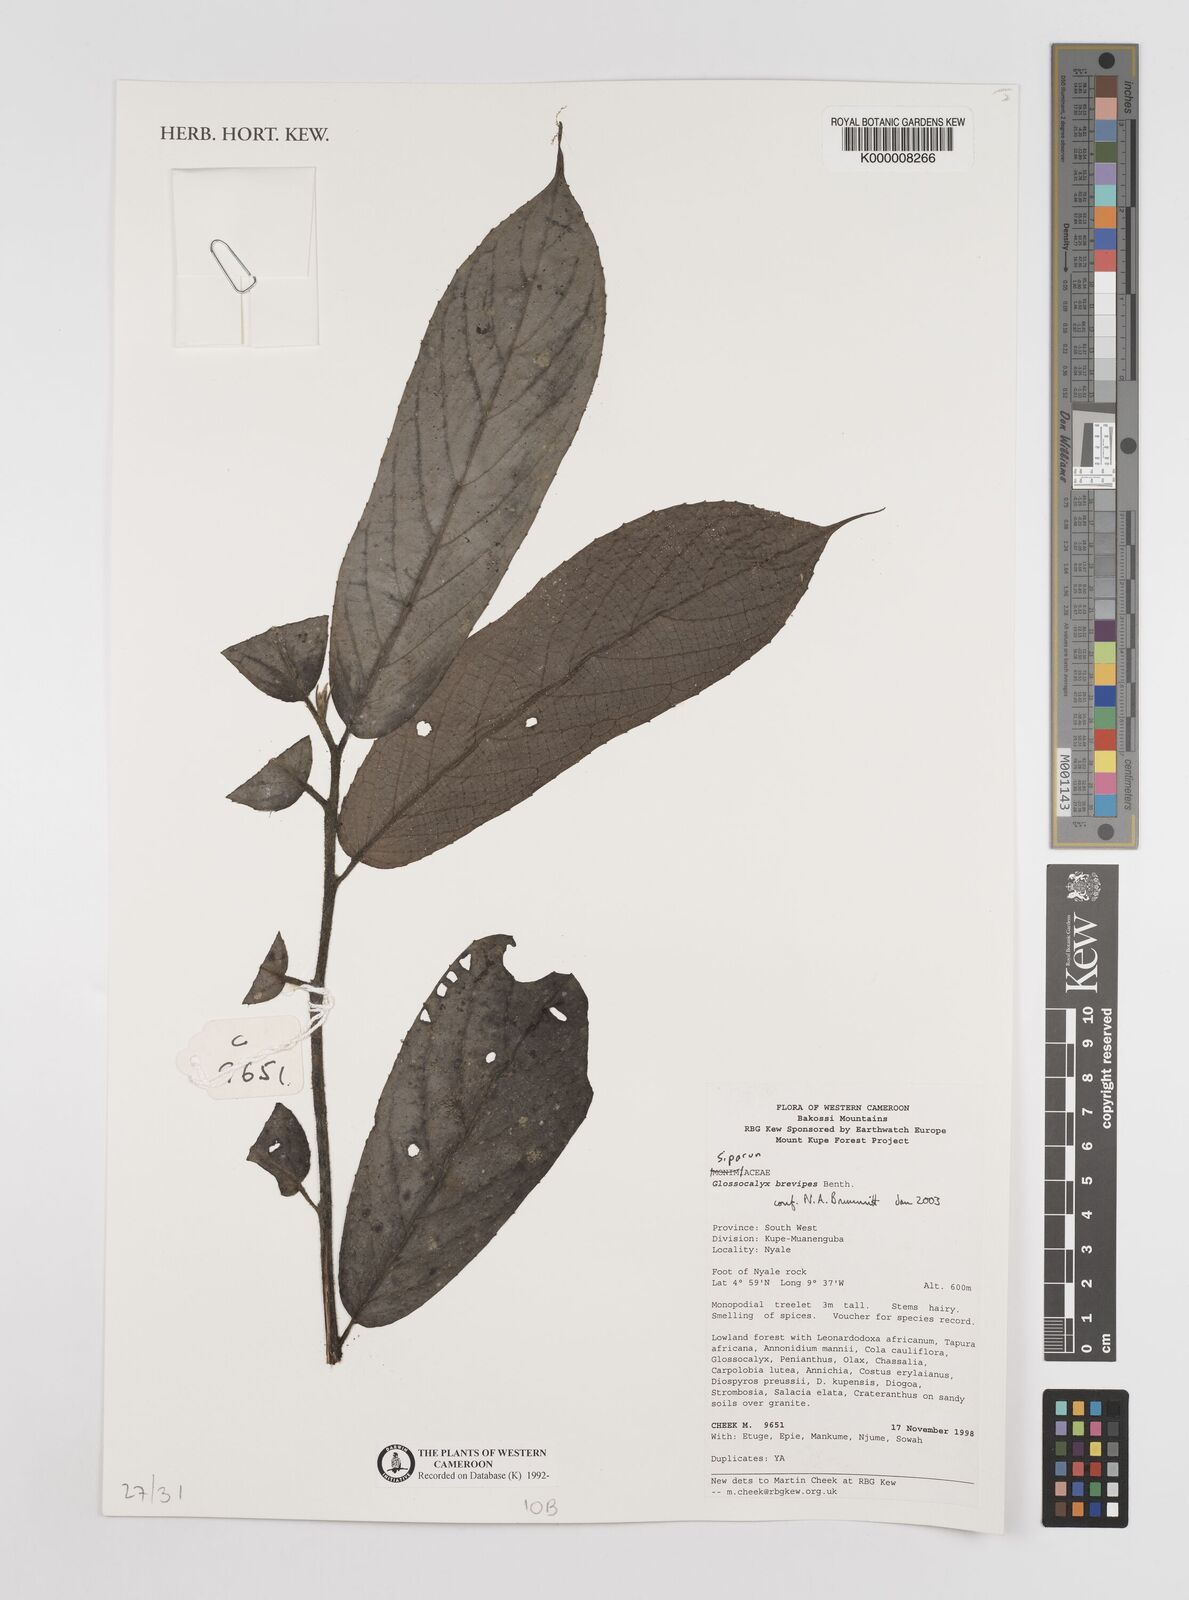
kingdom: Plantae
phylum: Tracheophyta
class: Magnoliopsida
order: Laurales
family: Siparunaceae
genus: Glossocalyx
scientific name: Glossocalyx brevipes
